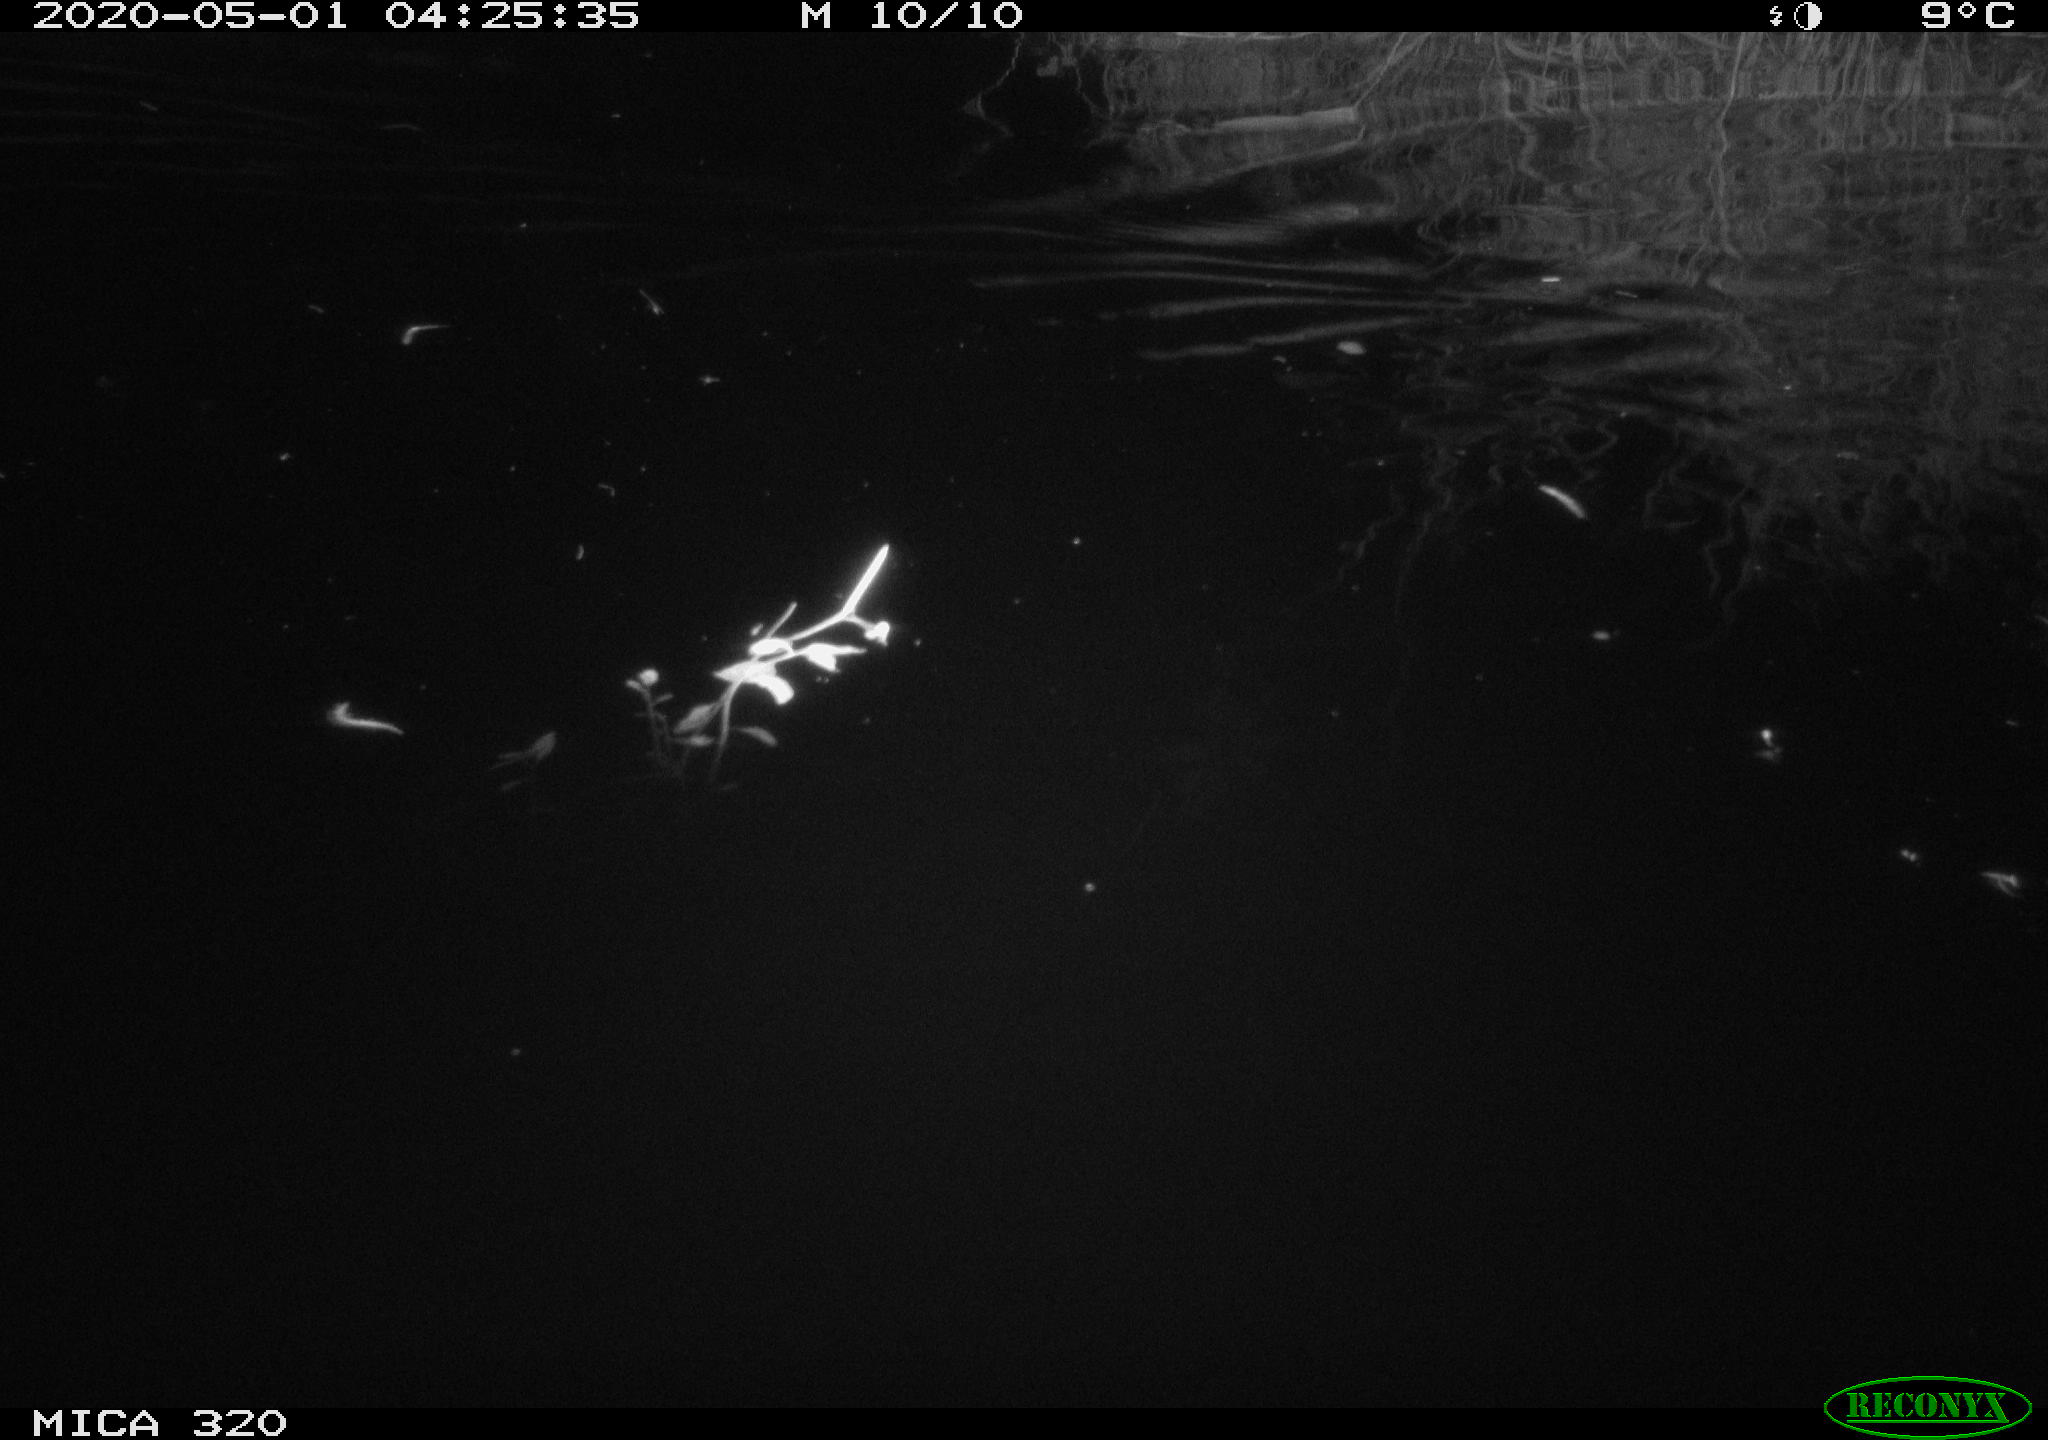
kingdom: Animalia
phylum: Chordata
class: Aves
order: Anseriformes
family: Anatidae
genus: Anas
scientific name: Anas platyrhynchos
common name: Mallard
